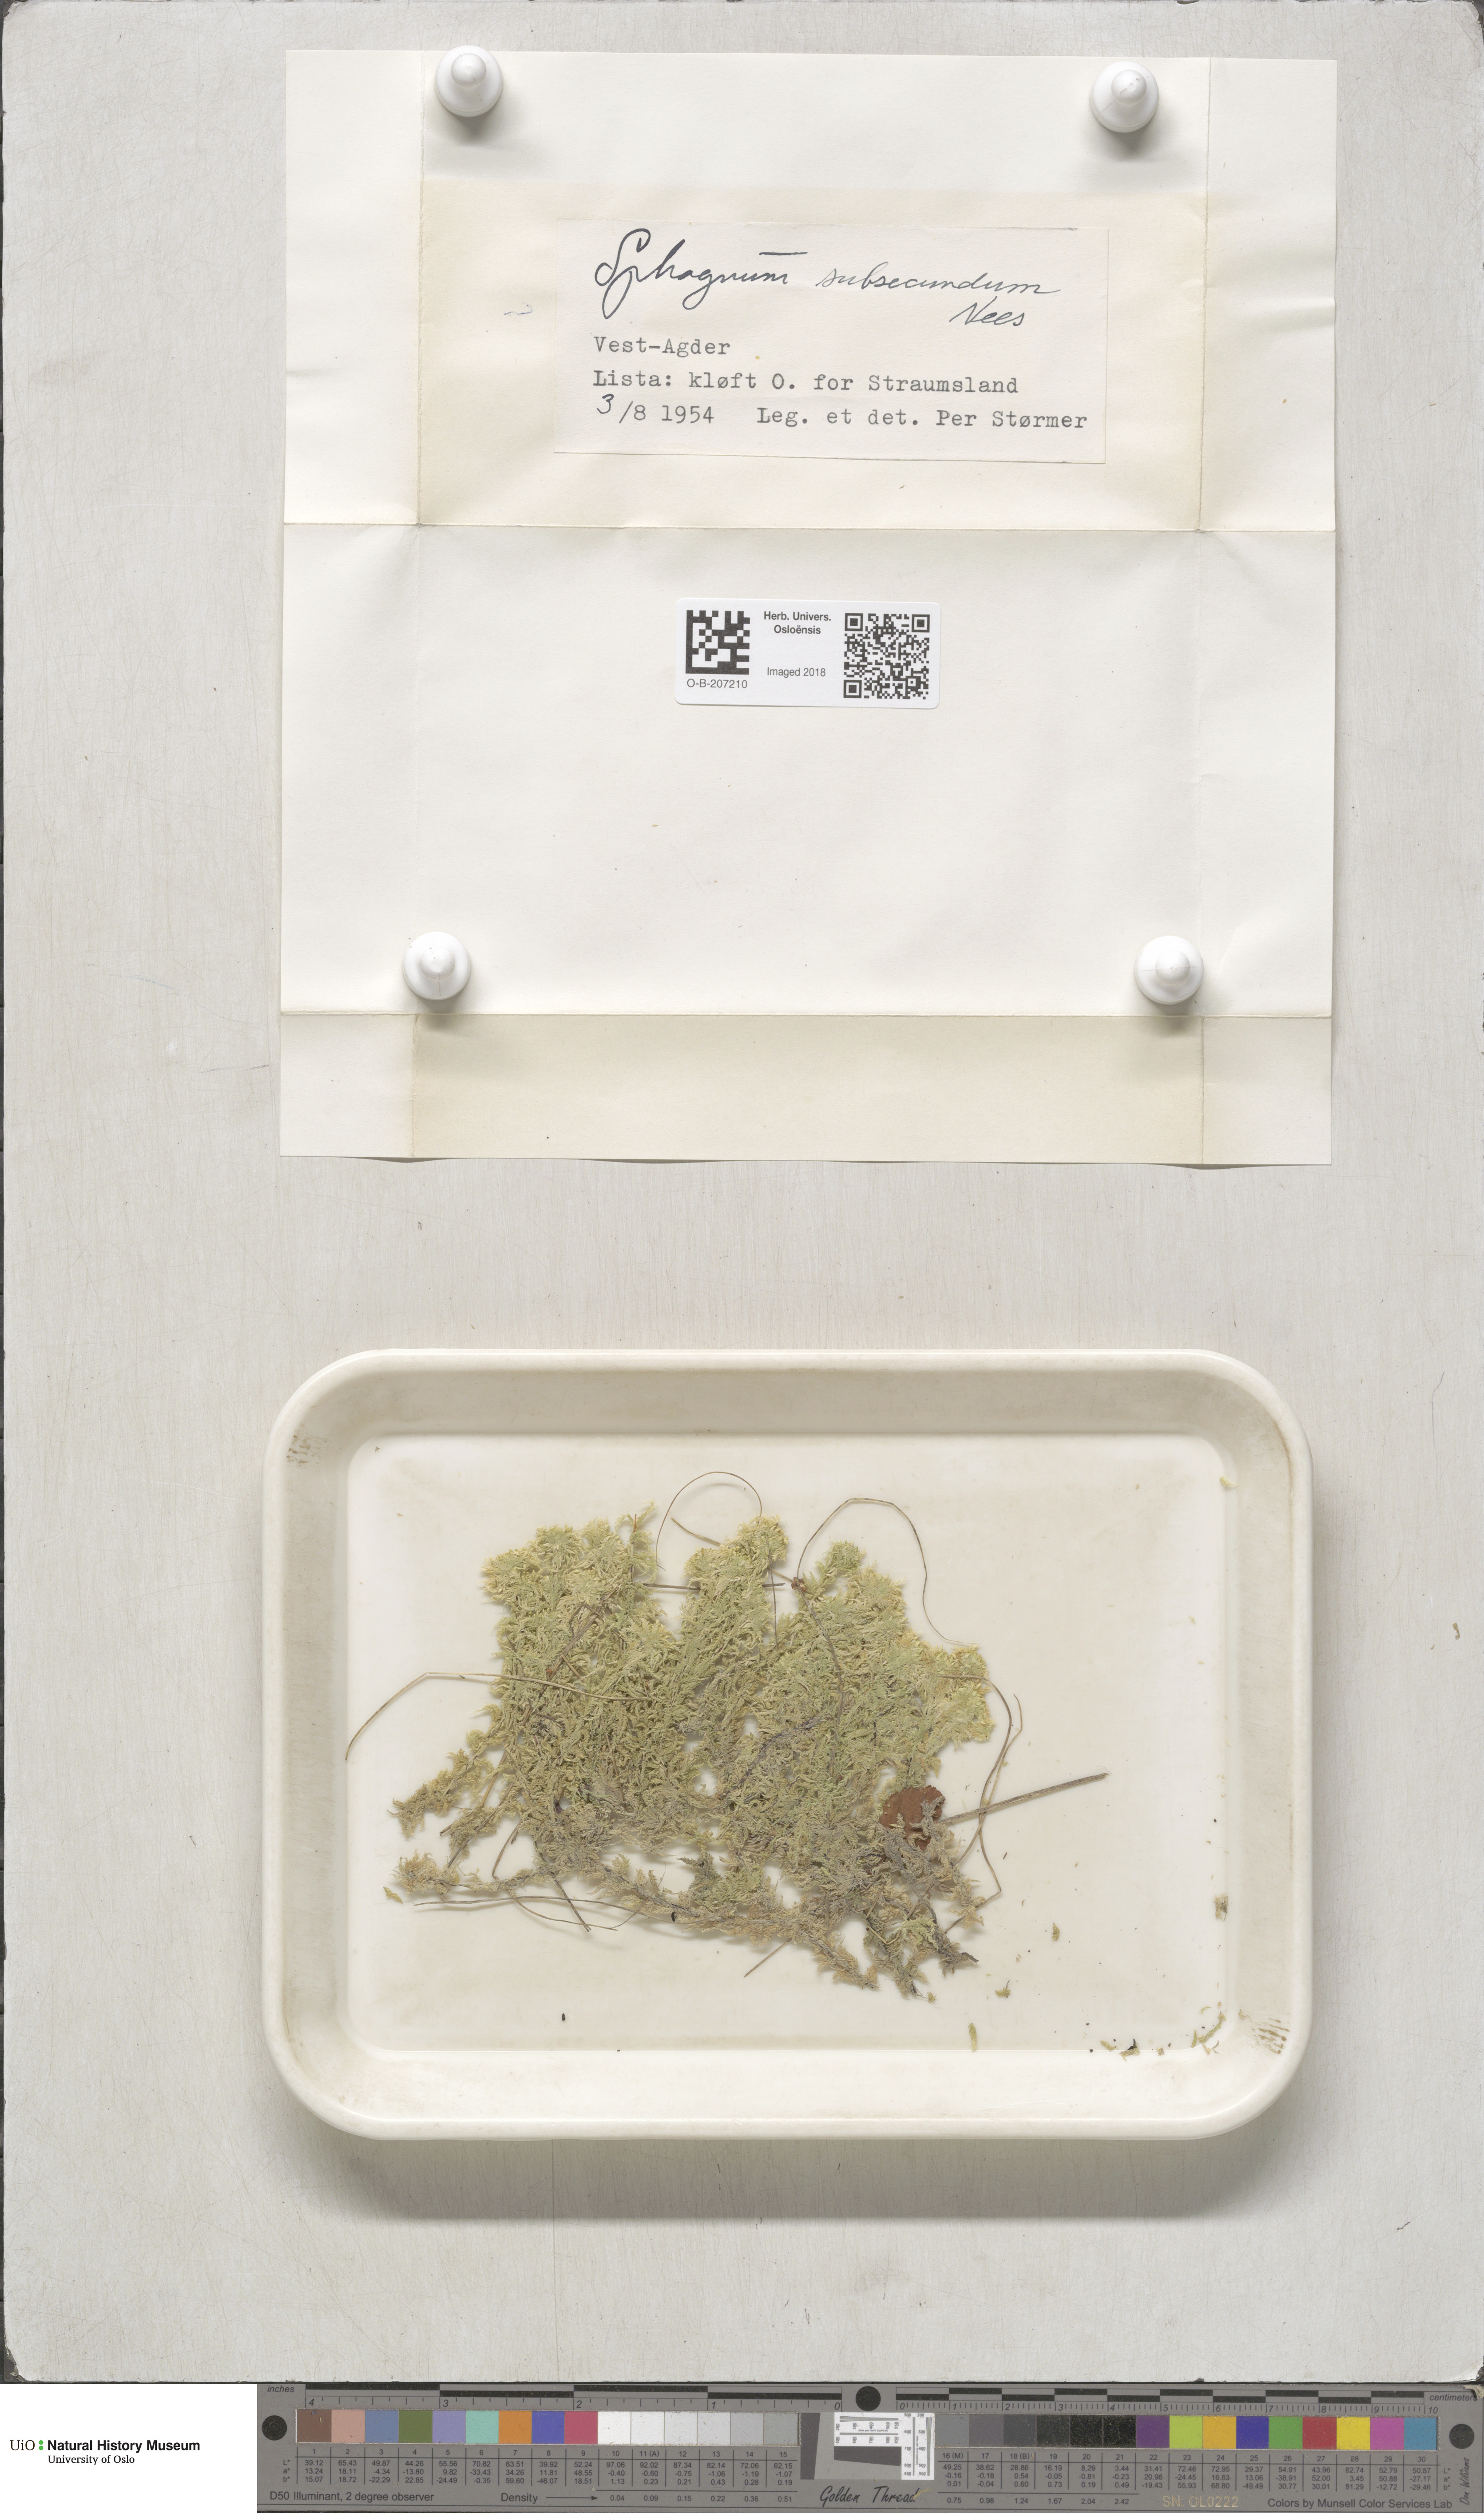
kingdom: Plantae
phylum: Bryophyta
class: Sphagnopsida
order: Sphagnales
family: Sphagnaceae
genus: Sphagnum
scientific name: Sphagnum subsecundum
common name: Orange peat moss
